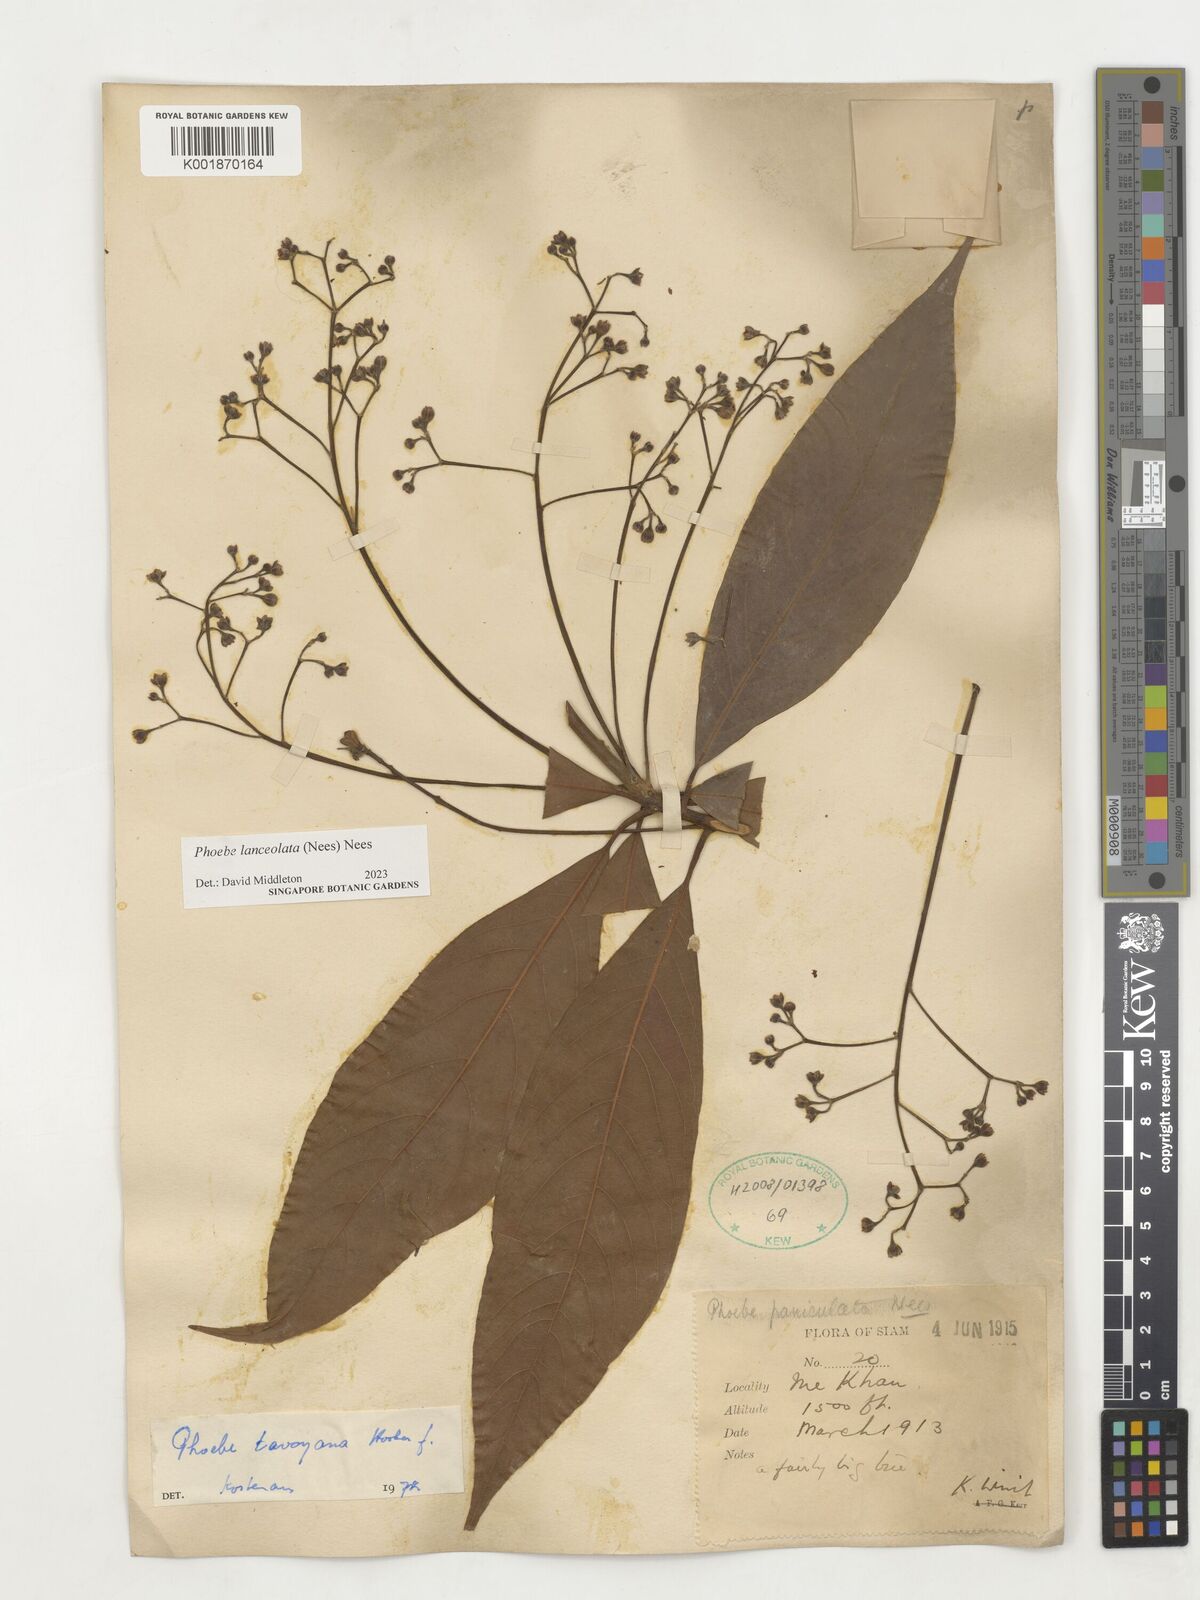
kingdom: Plantae
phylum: Tracheophyta
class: Magnoliopsida
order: Laurales
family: Lauraceae
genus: Phoebe
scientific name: Phoebe lanceolata
